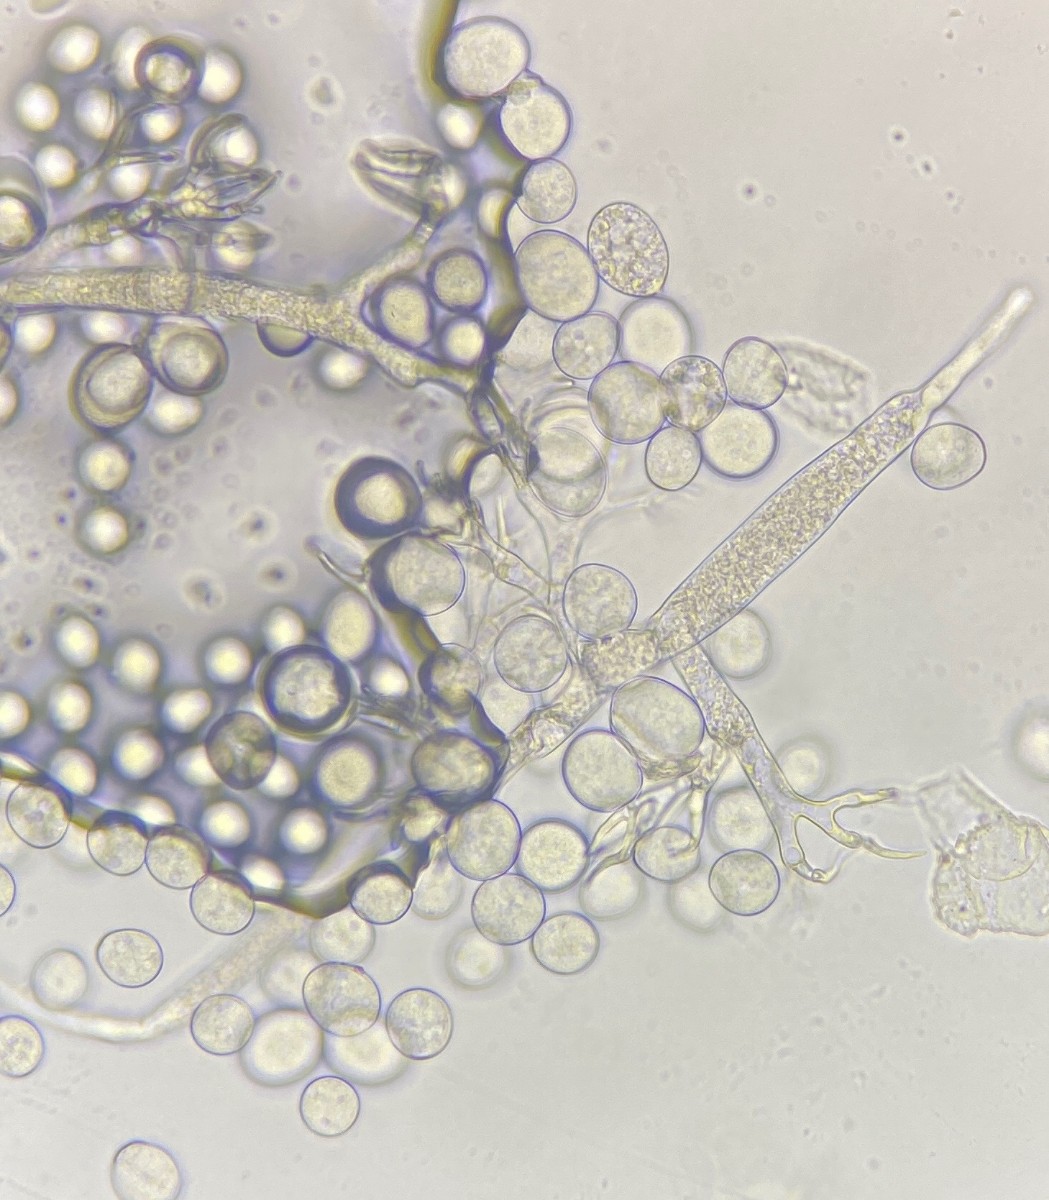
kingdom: Chromista
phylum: Oomycota
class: Peronosporea
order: Peronosporales
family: Peronosporaceae
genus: Hyaloperonospora
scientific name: Hyaloperonospora parasitica
